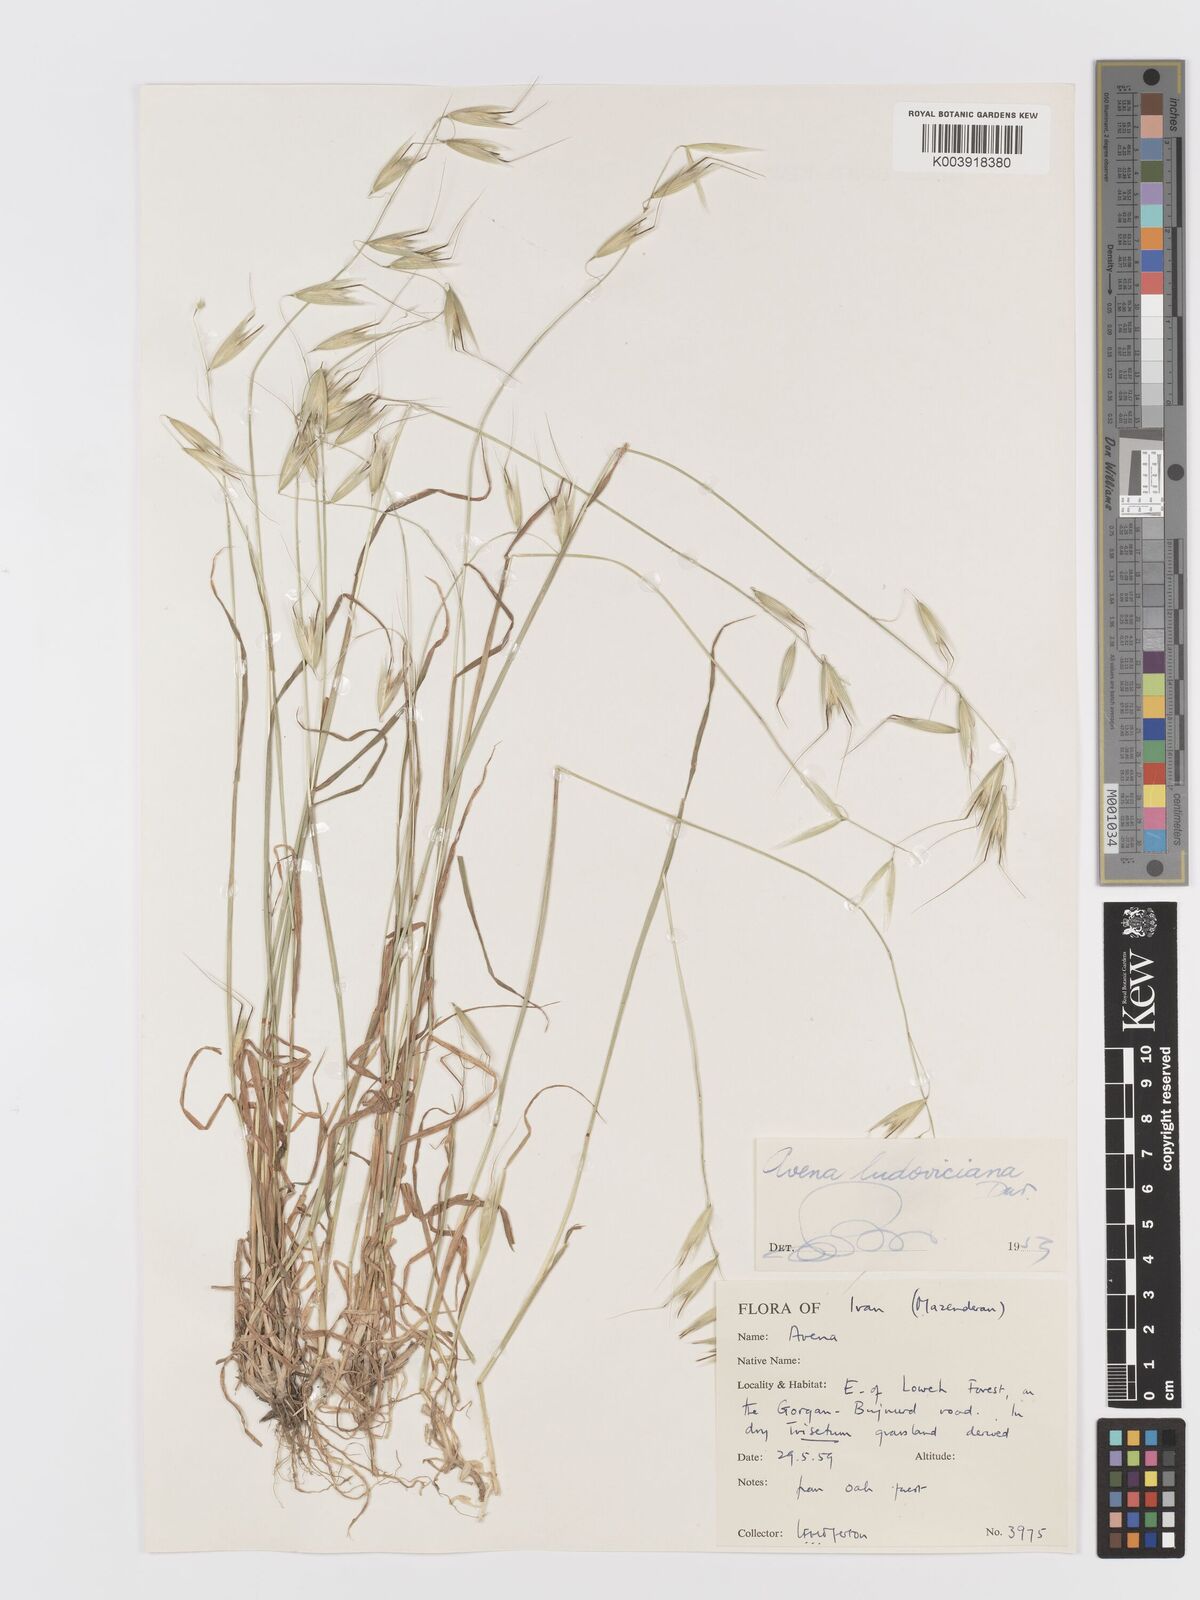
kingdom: Plantae
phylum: Tracheophyta
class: Liliopsida
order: Poales
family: Poaceae
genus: Avena
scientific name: Avena sterilis
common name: Animated oat
